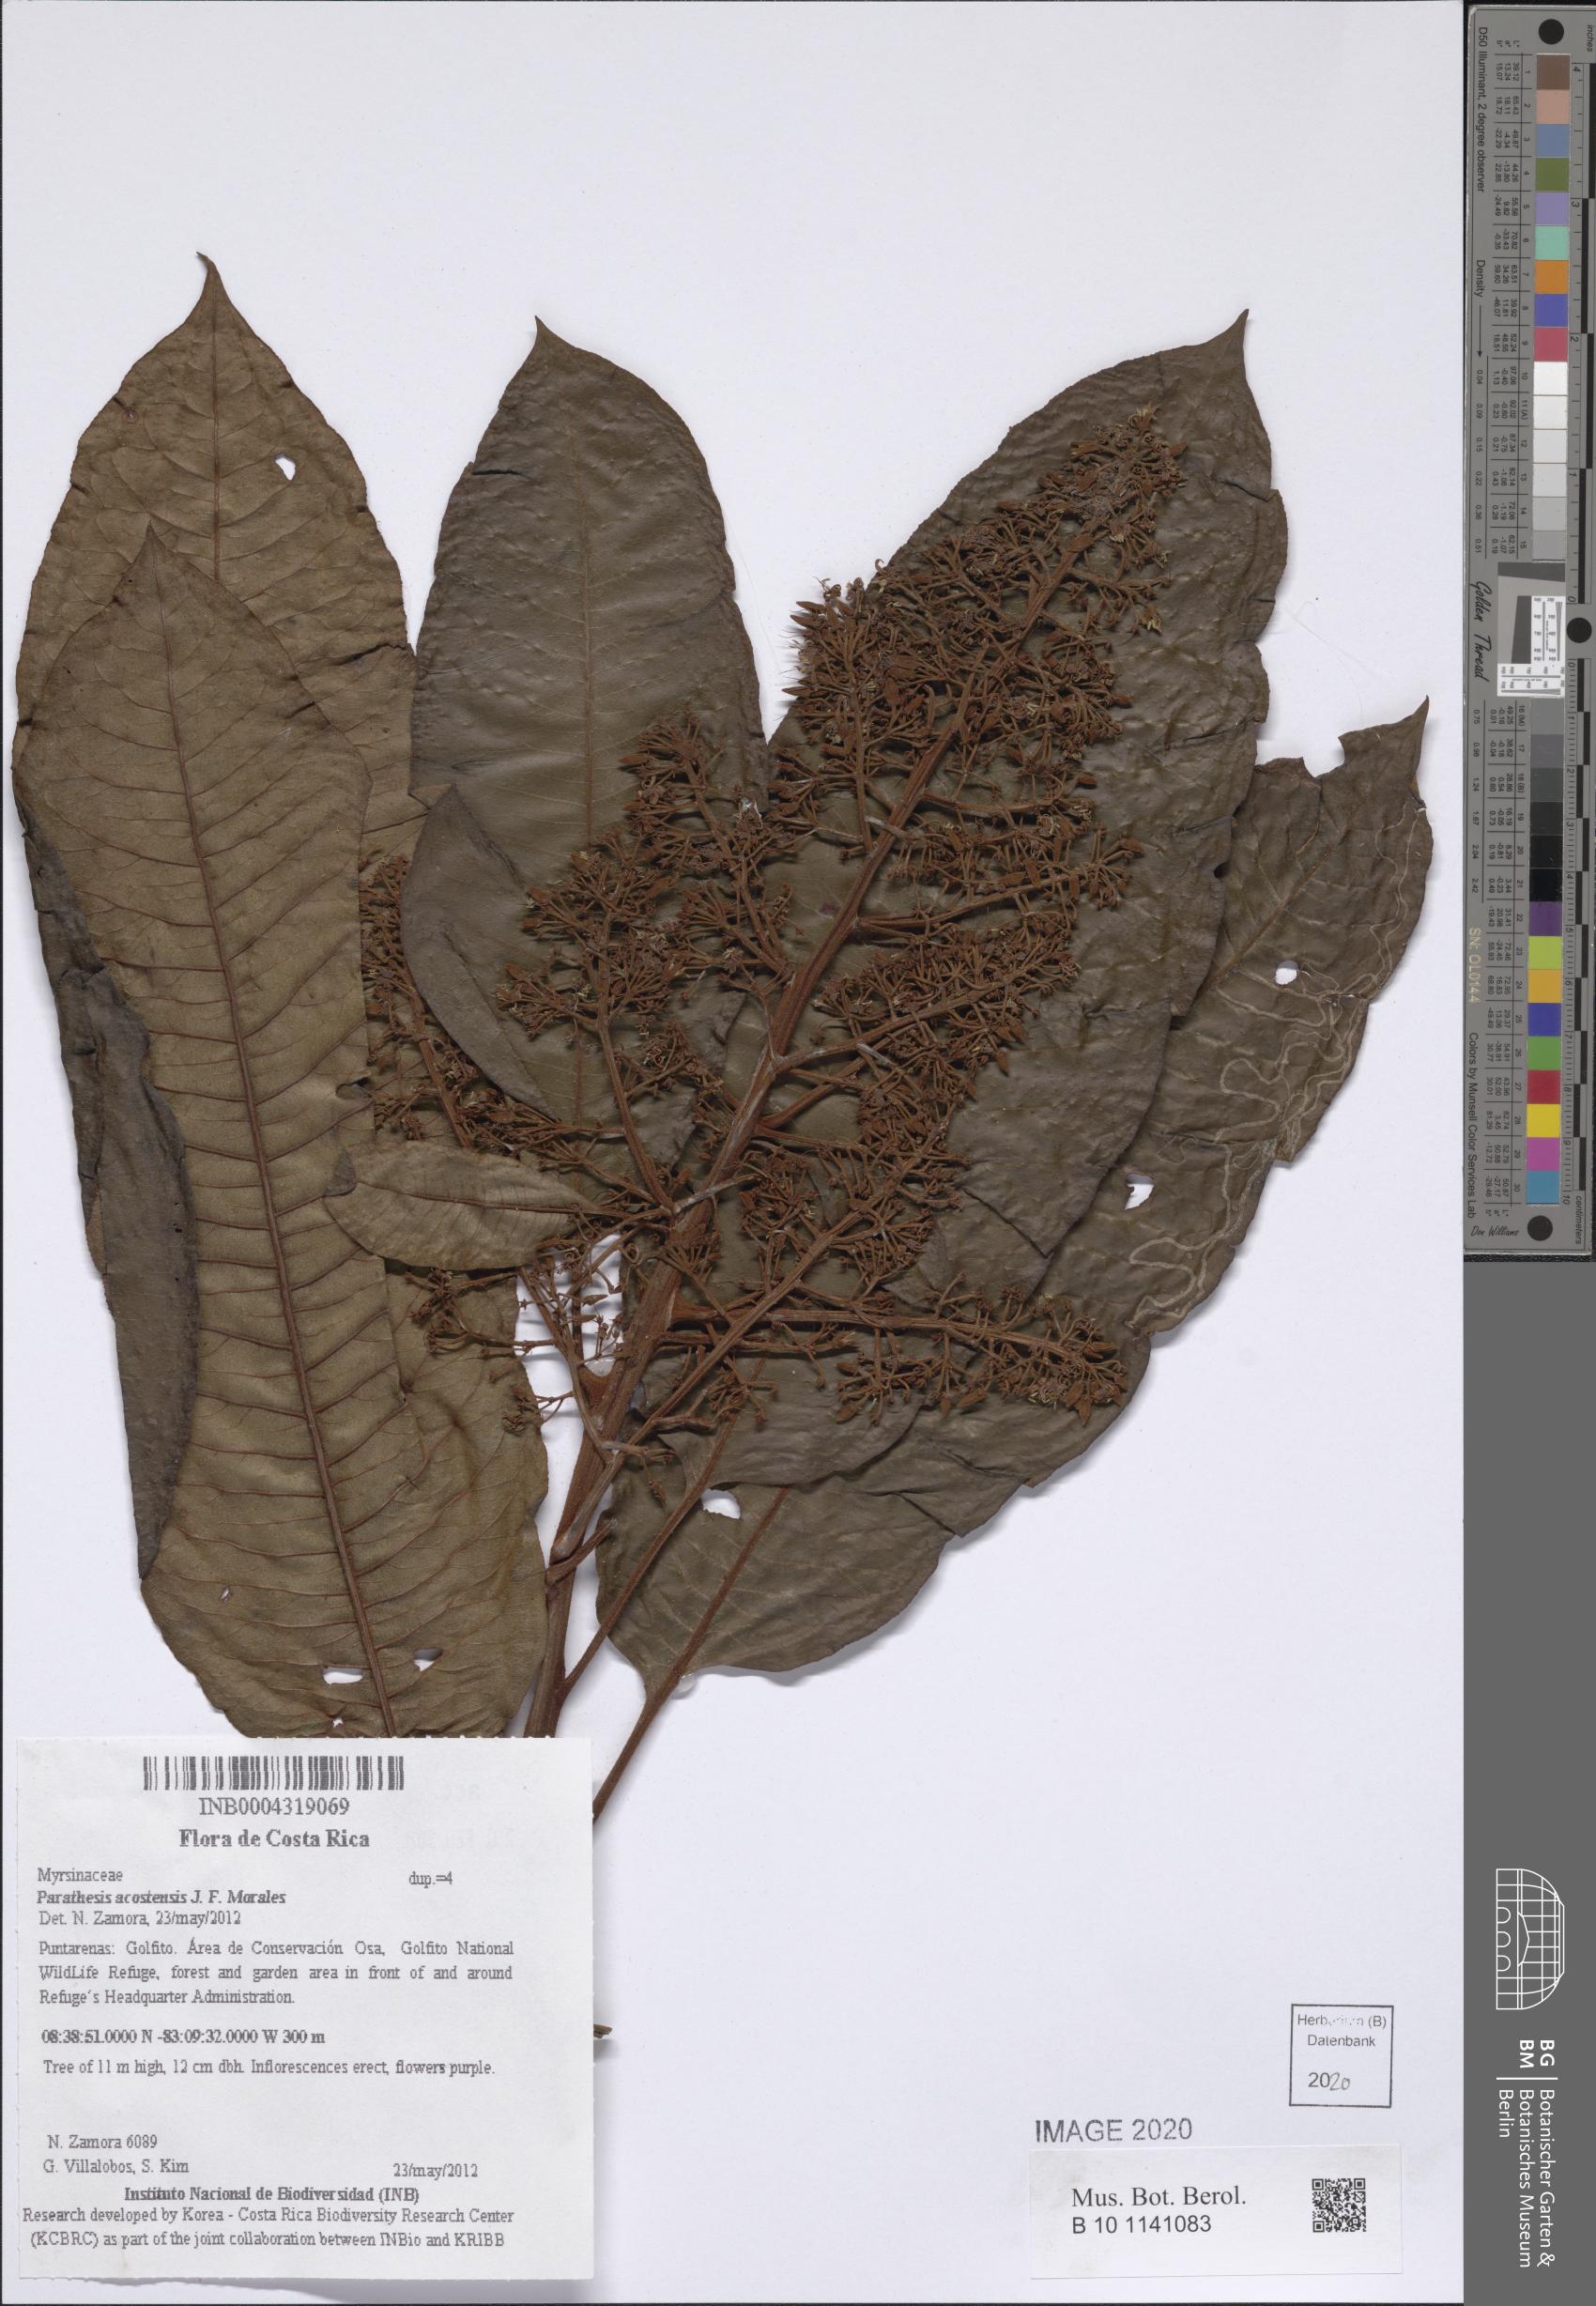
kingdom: Plantae
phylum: Tracheophyta
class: Magnoliopsida
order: Ericales
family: Primulaceae
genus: Parathesis
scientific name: Parathesis acostensis
